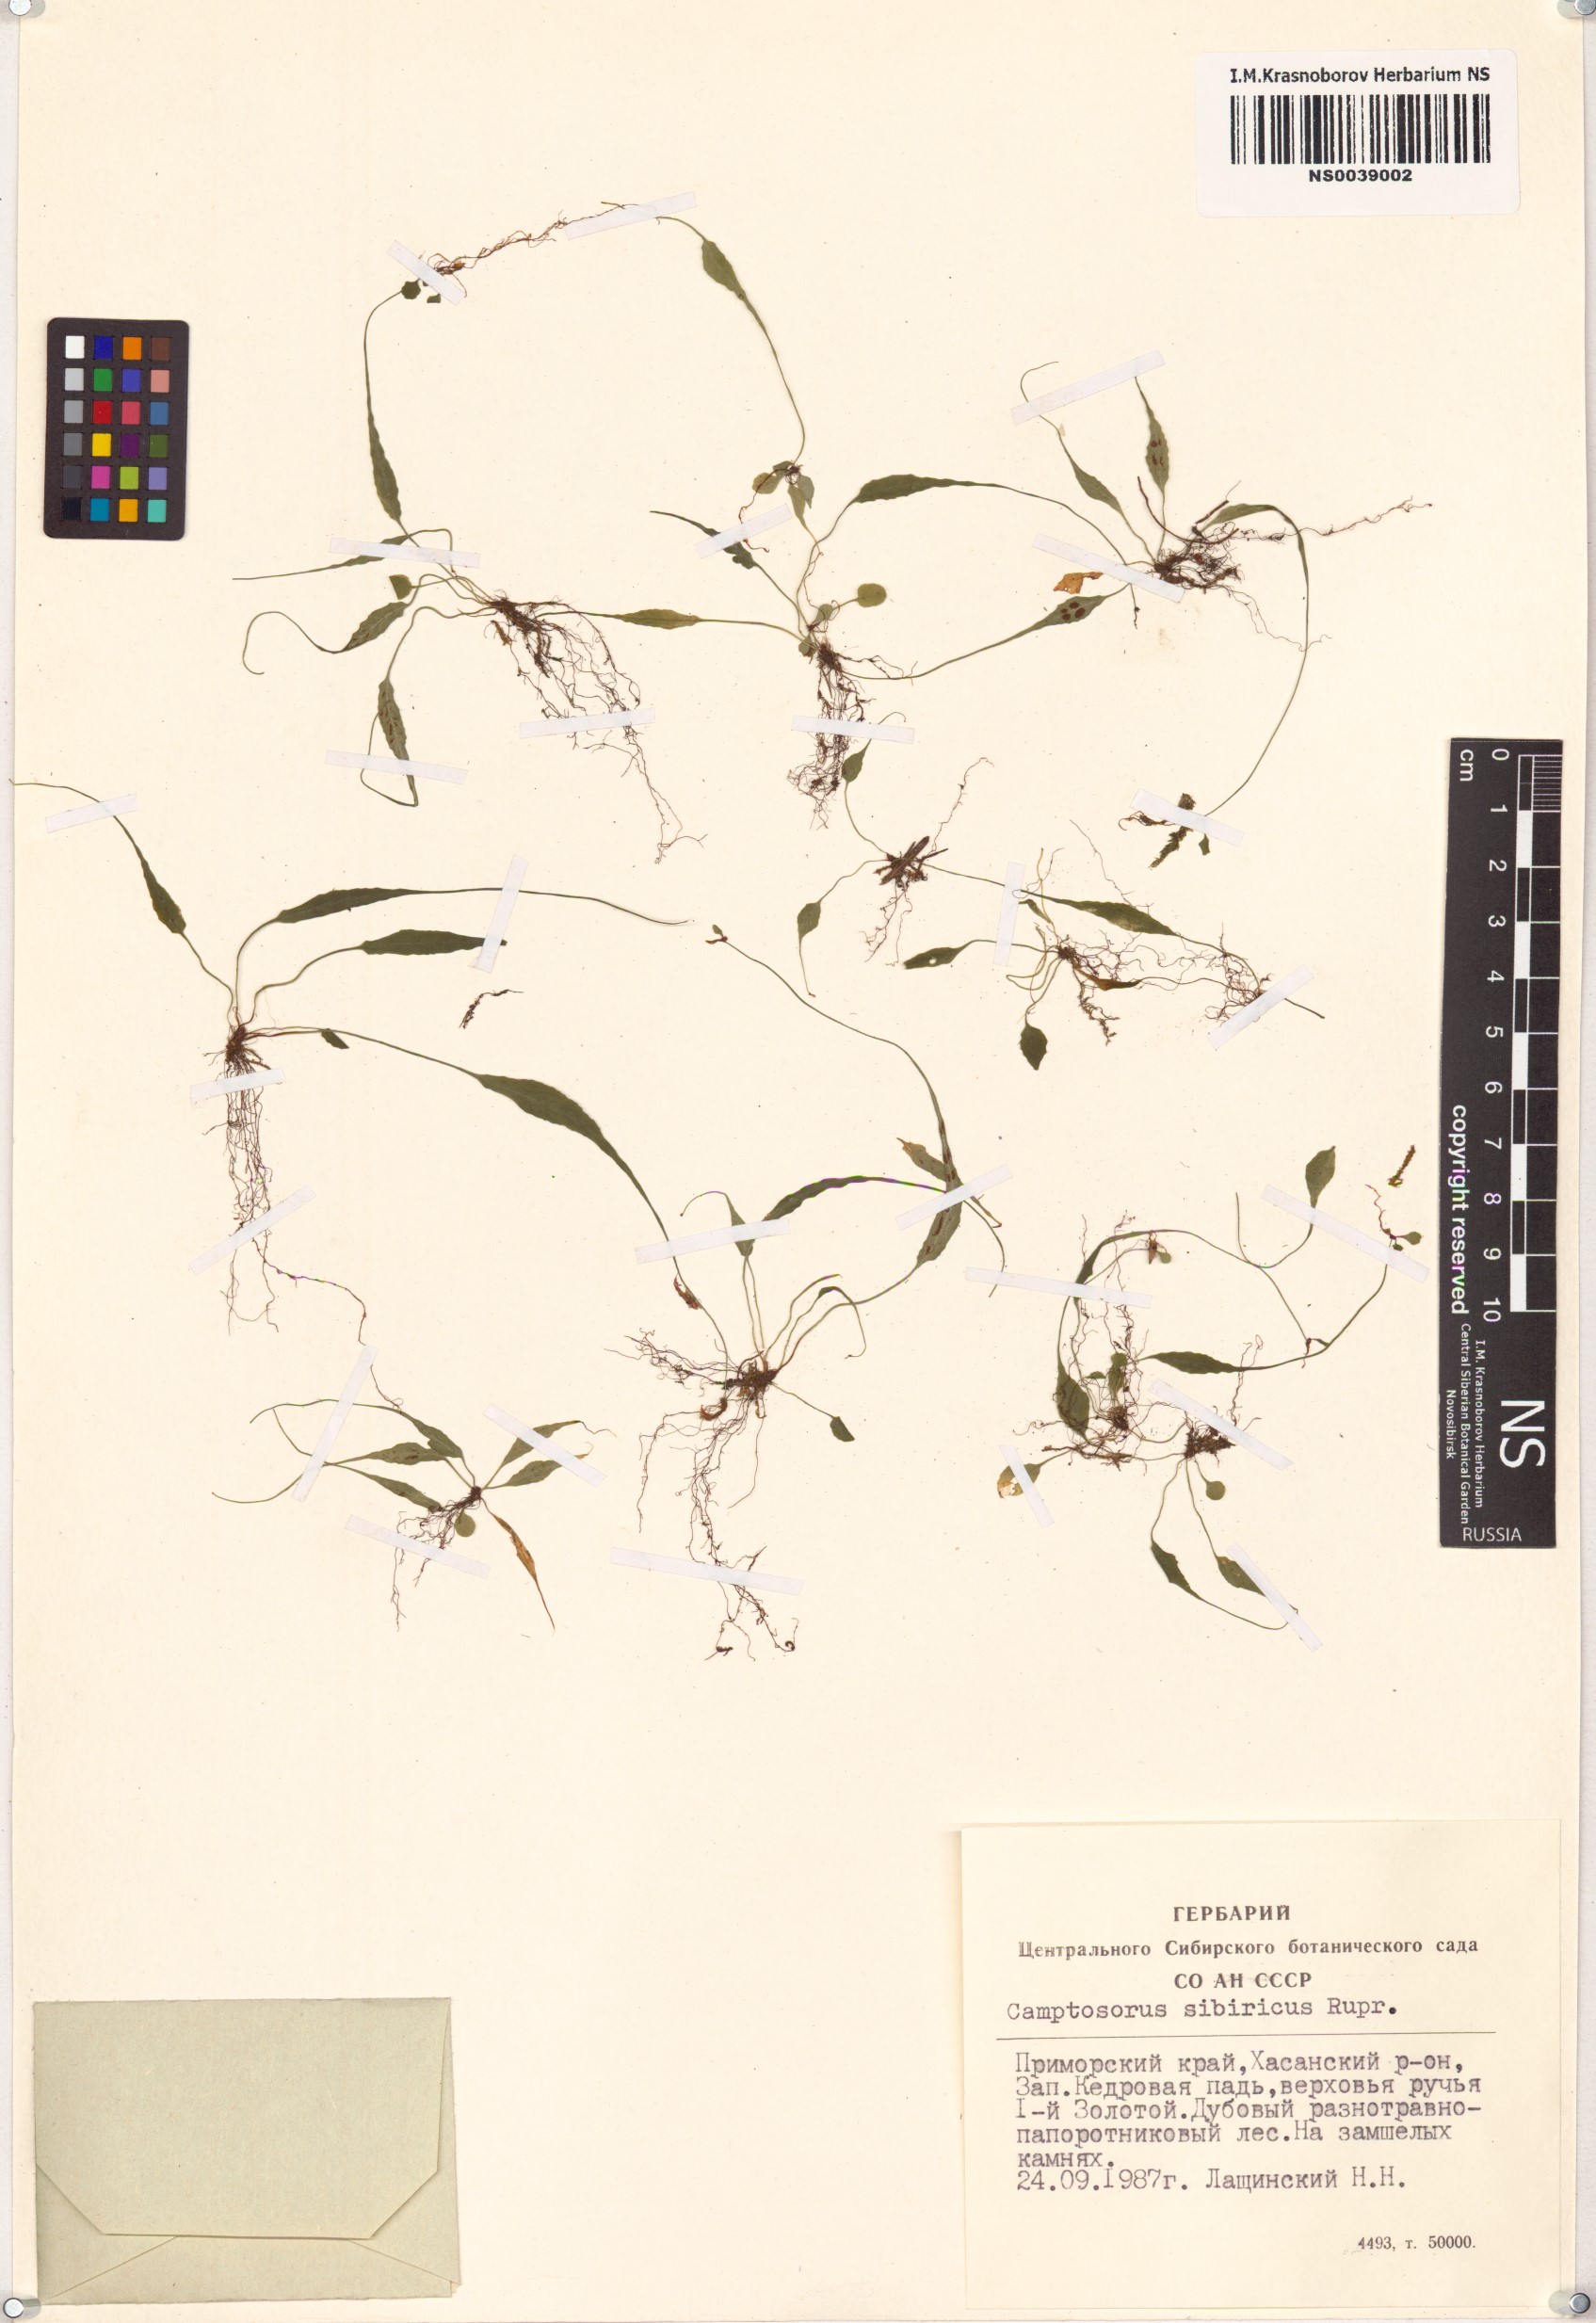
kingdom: Plantae
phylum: Tracheophyta
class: Polypodiopsida
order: Polypodiales
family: Aspleniaceae
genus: Asplenium
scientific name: Asplenium ruprechtii
